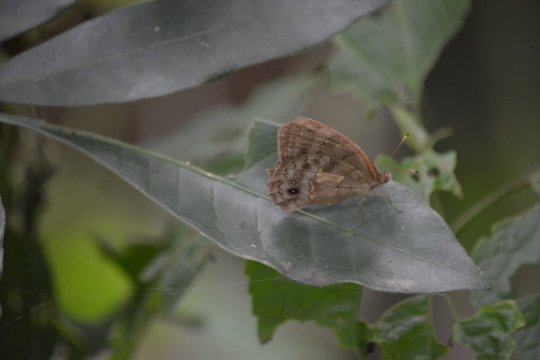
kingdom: Animalia
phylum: Arthropoda
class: Insecta
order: Lepidoptera
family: Nymphalidae
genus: Magneuptychia
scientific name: Magneuptychia libye
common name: Blue-gray Satyr
